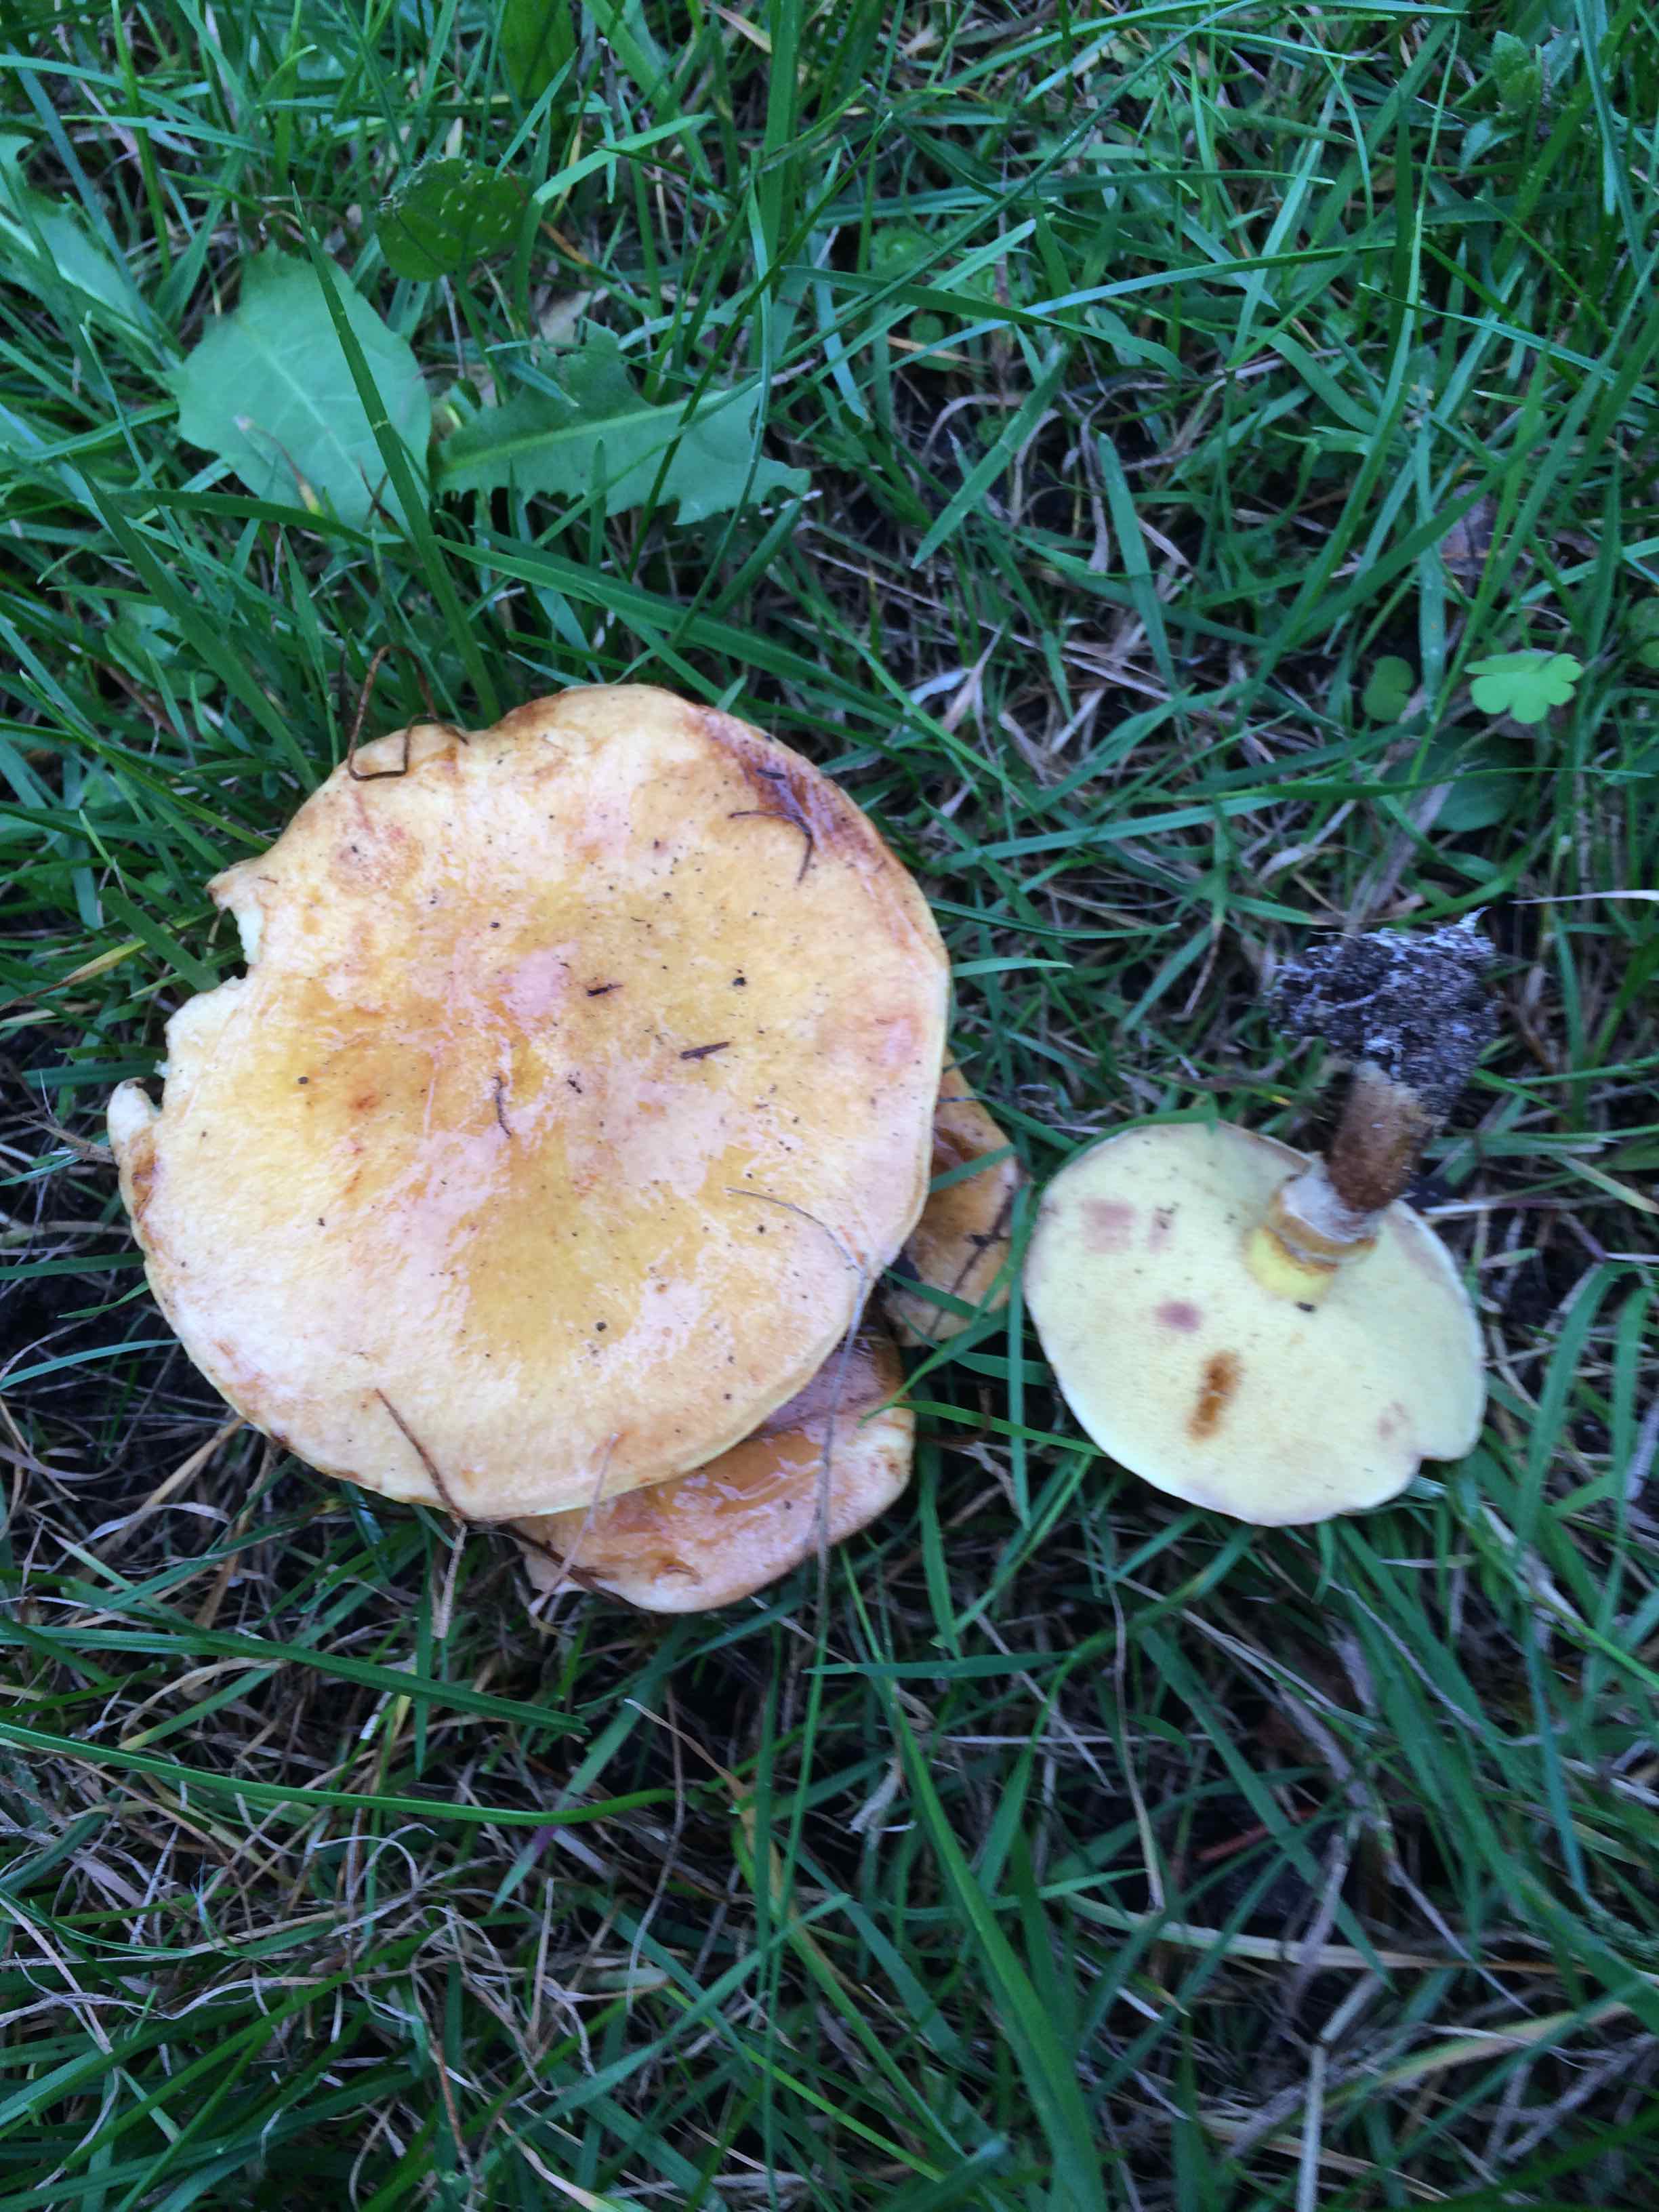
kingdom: Fungi
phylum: Basidiomycota
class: Agaricomycetes
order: Boletales
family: Suillaceae
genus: Suillus
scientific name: Suillus grevillei
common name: lærke-slimrørhat
